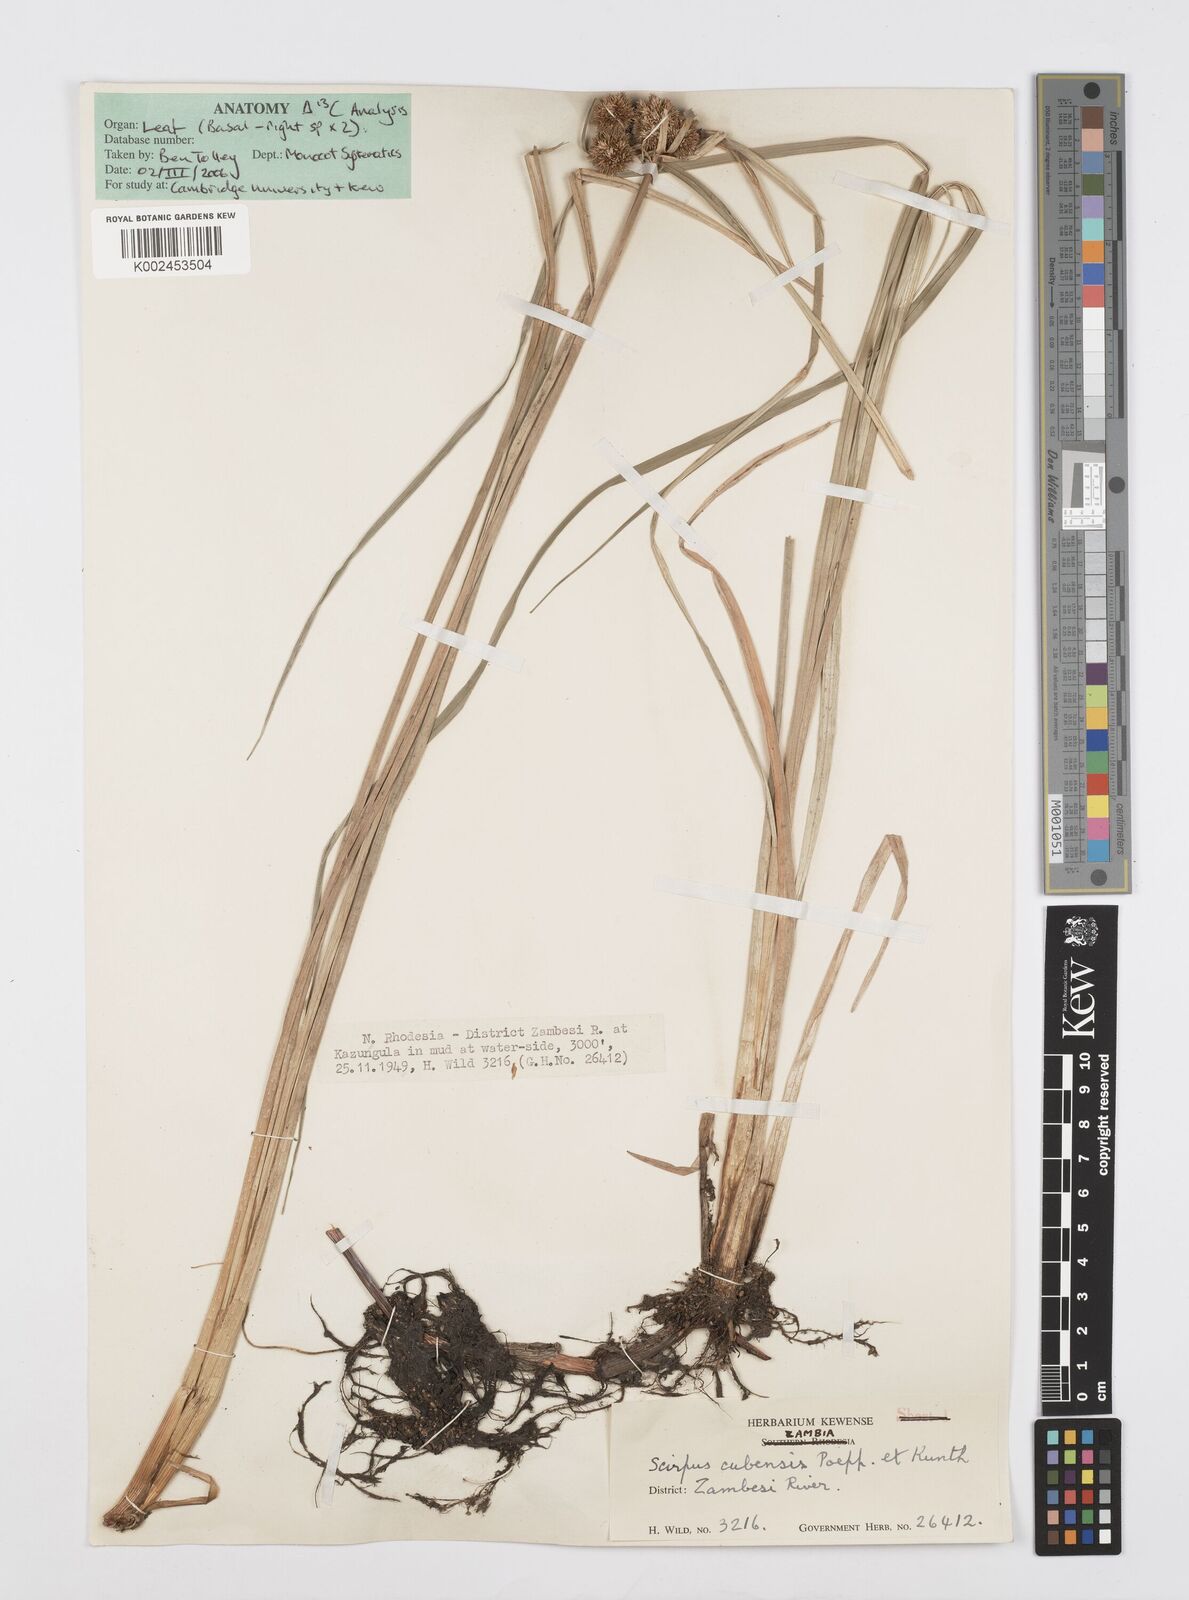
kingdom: Plantae
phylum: Tracheophyta
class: Liliopsida
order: Poales
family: Cyperaceae
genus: Cyperus
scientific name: Cyperus elegans
